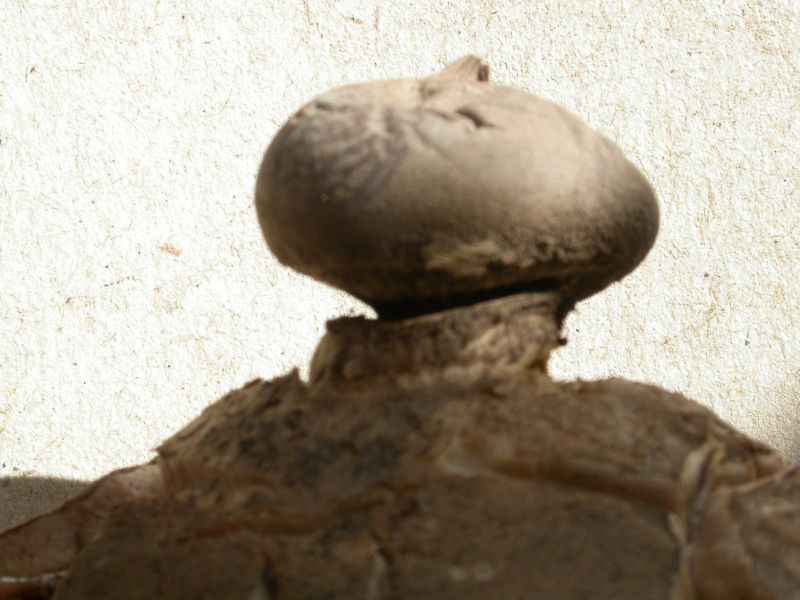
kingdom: Fungi
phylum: Basidiomycota
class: Agaricomycetes
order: Geastrales
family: Geastraceae
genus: Geastrum
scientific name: Geastrum pectinatum
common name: stilket stjernebold
